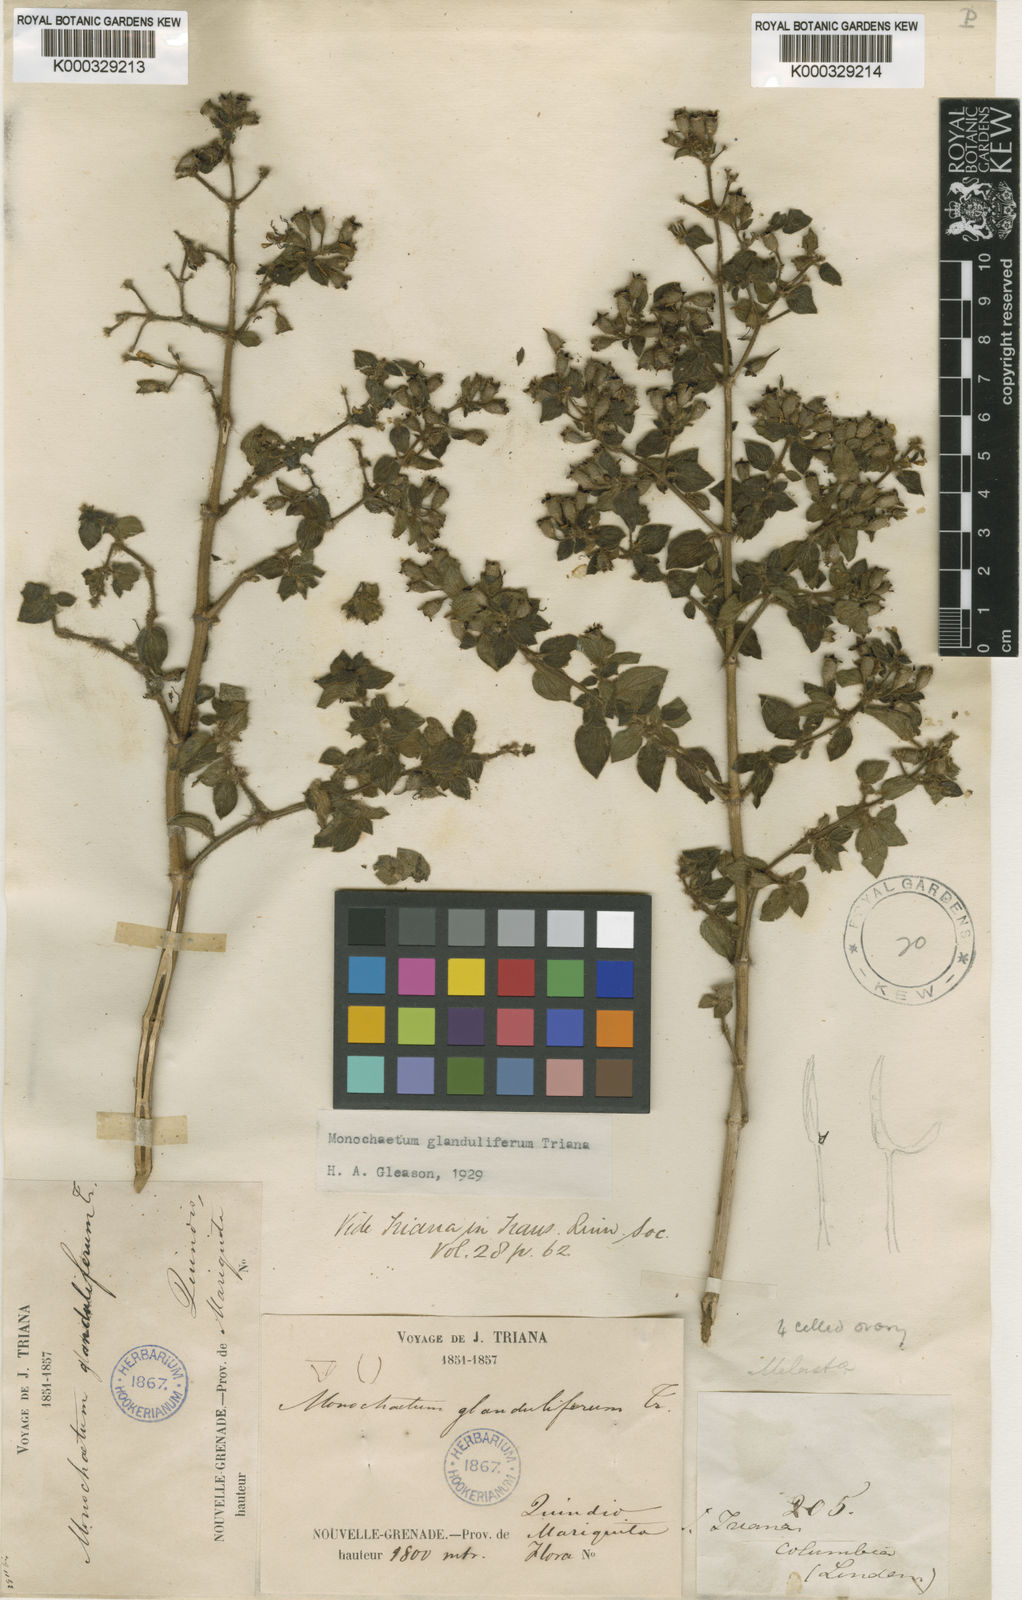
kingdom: Plantae
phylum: Tracheophyta
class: Magnoliopsida
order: Myrtales
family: Melastomataceae
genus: Monochaetum
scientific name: Monochaetum glanduliferum
